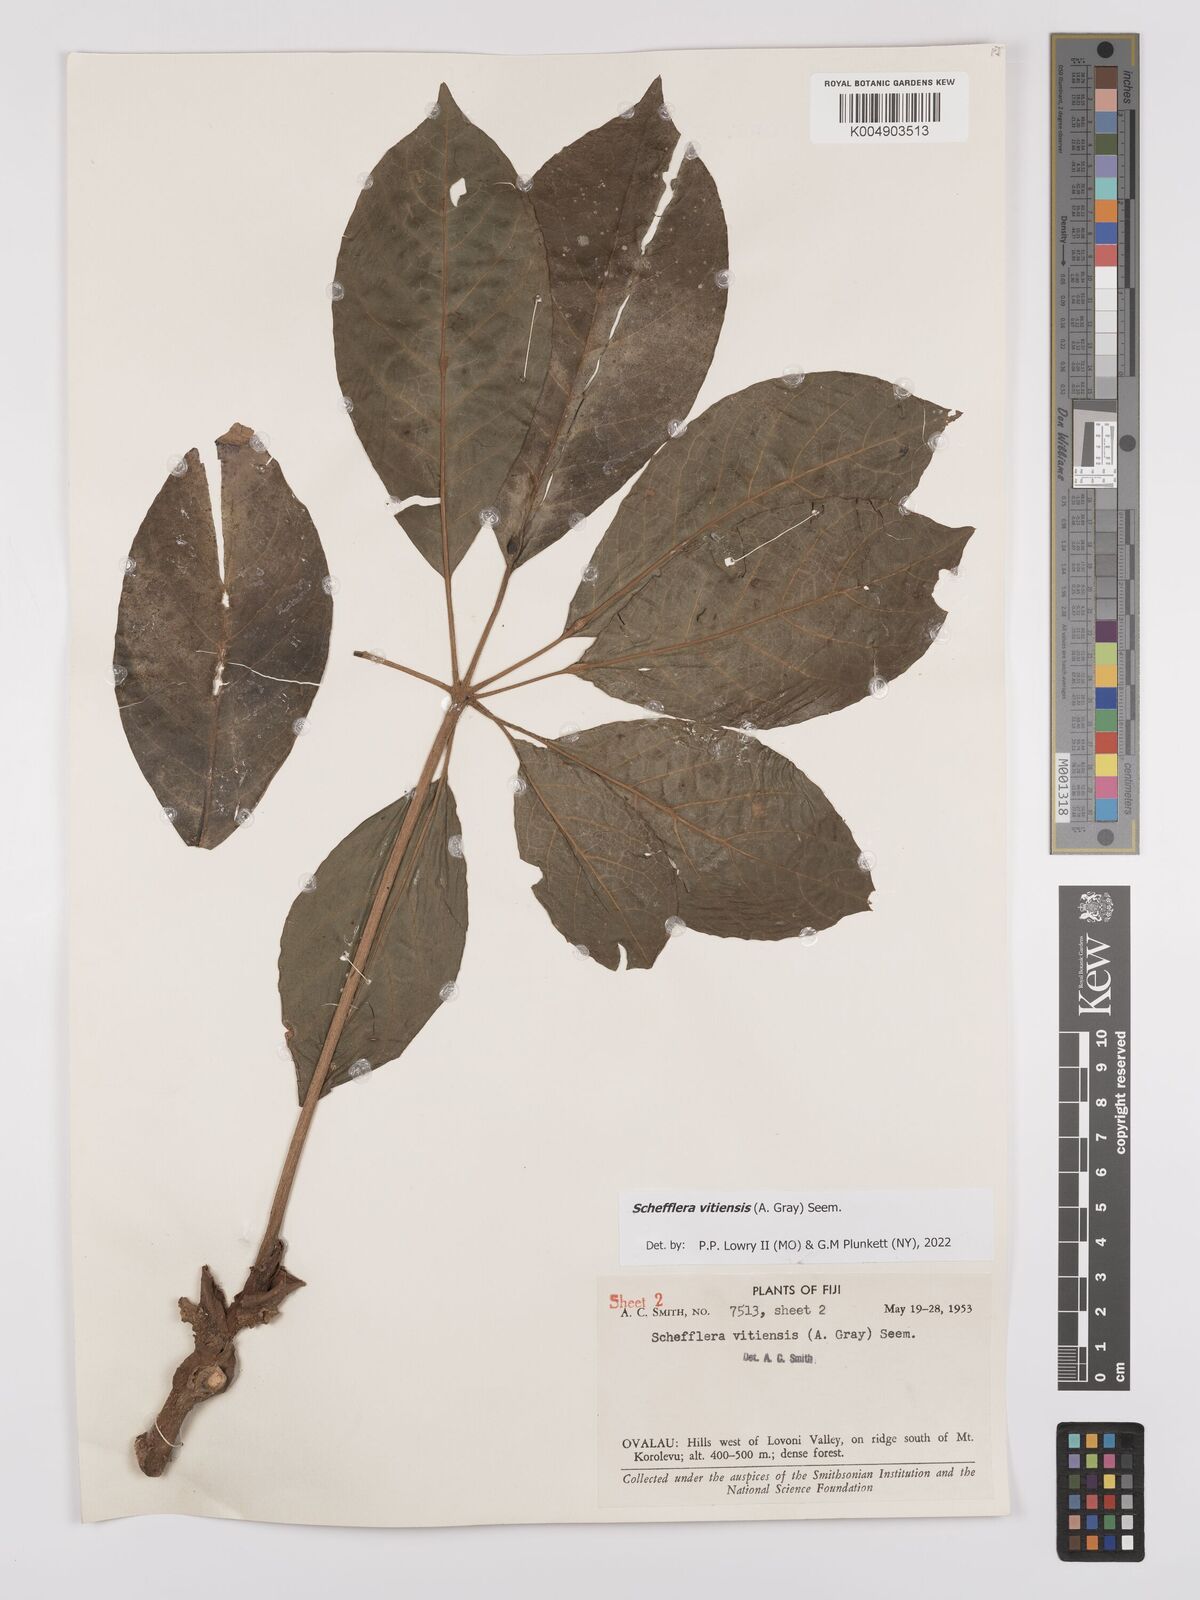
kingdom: Plantae
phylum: Tracheophyta
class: Magnoliopsida
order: Apiales
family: Araliaceae
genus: Schefflera
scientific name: Schefflera vitiensis
